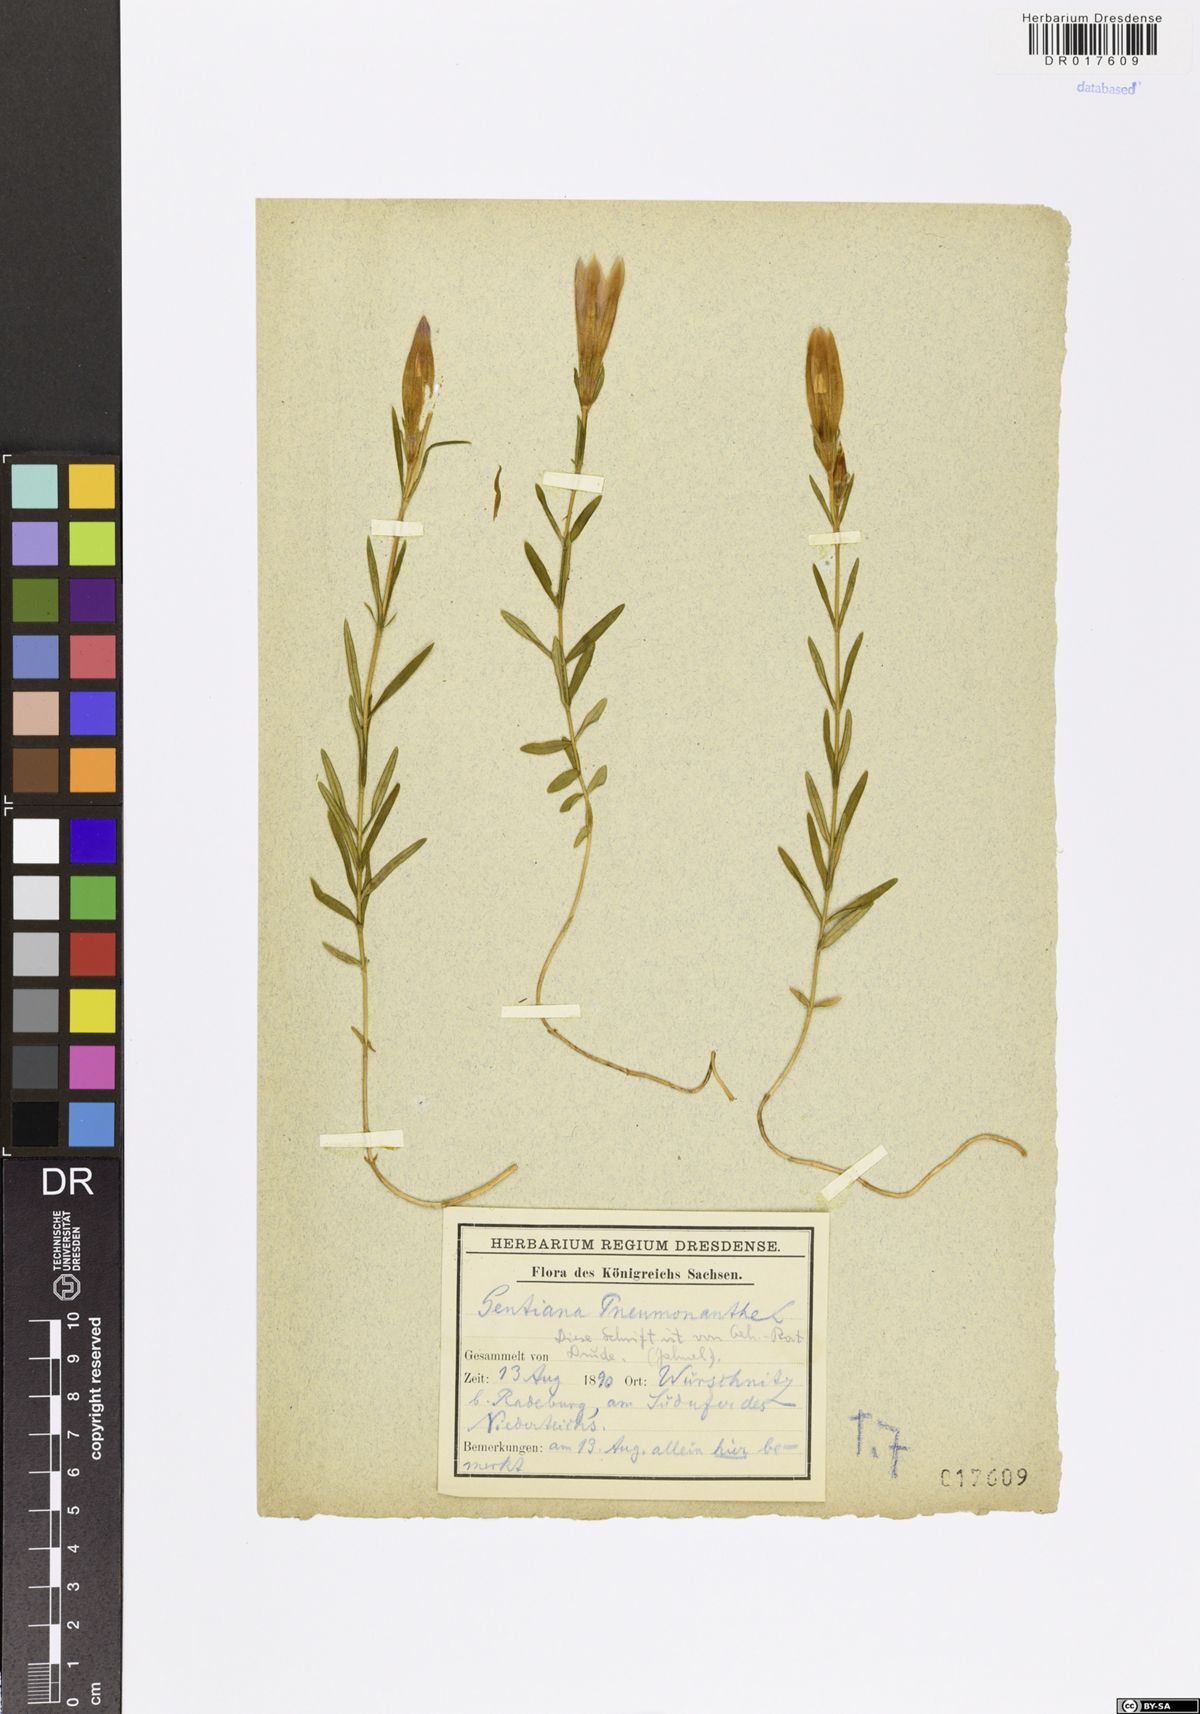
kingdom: Plantae
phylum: Tracheophyta
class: Magnoliopsida
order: Gentianales
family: Gentianaceae
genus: Gentiana
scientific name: Gentiana pneumonanthe
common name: Marsh gentian
